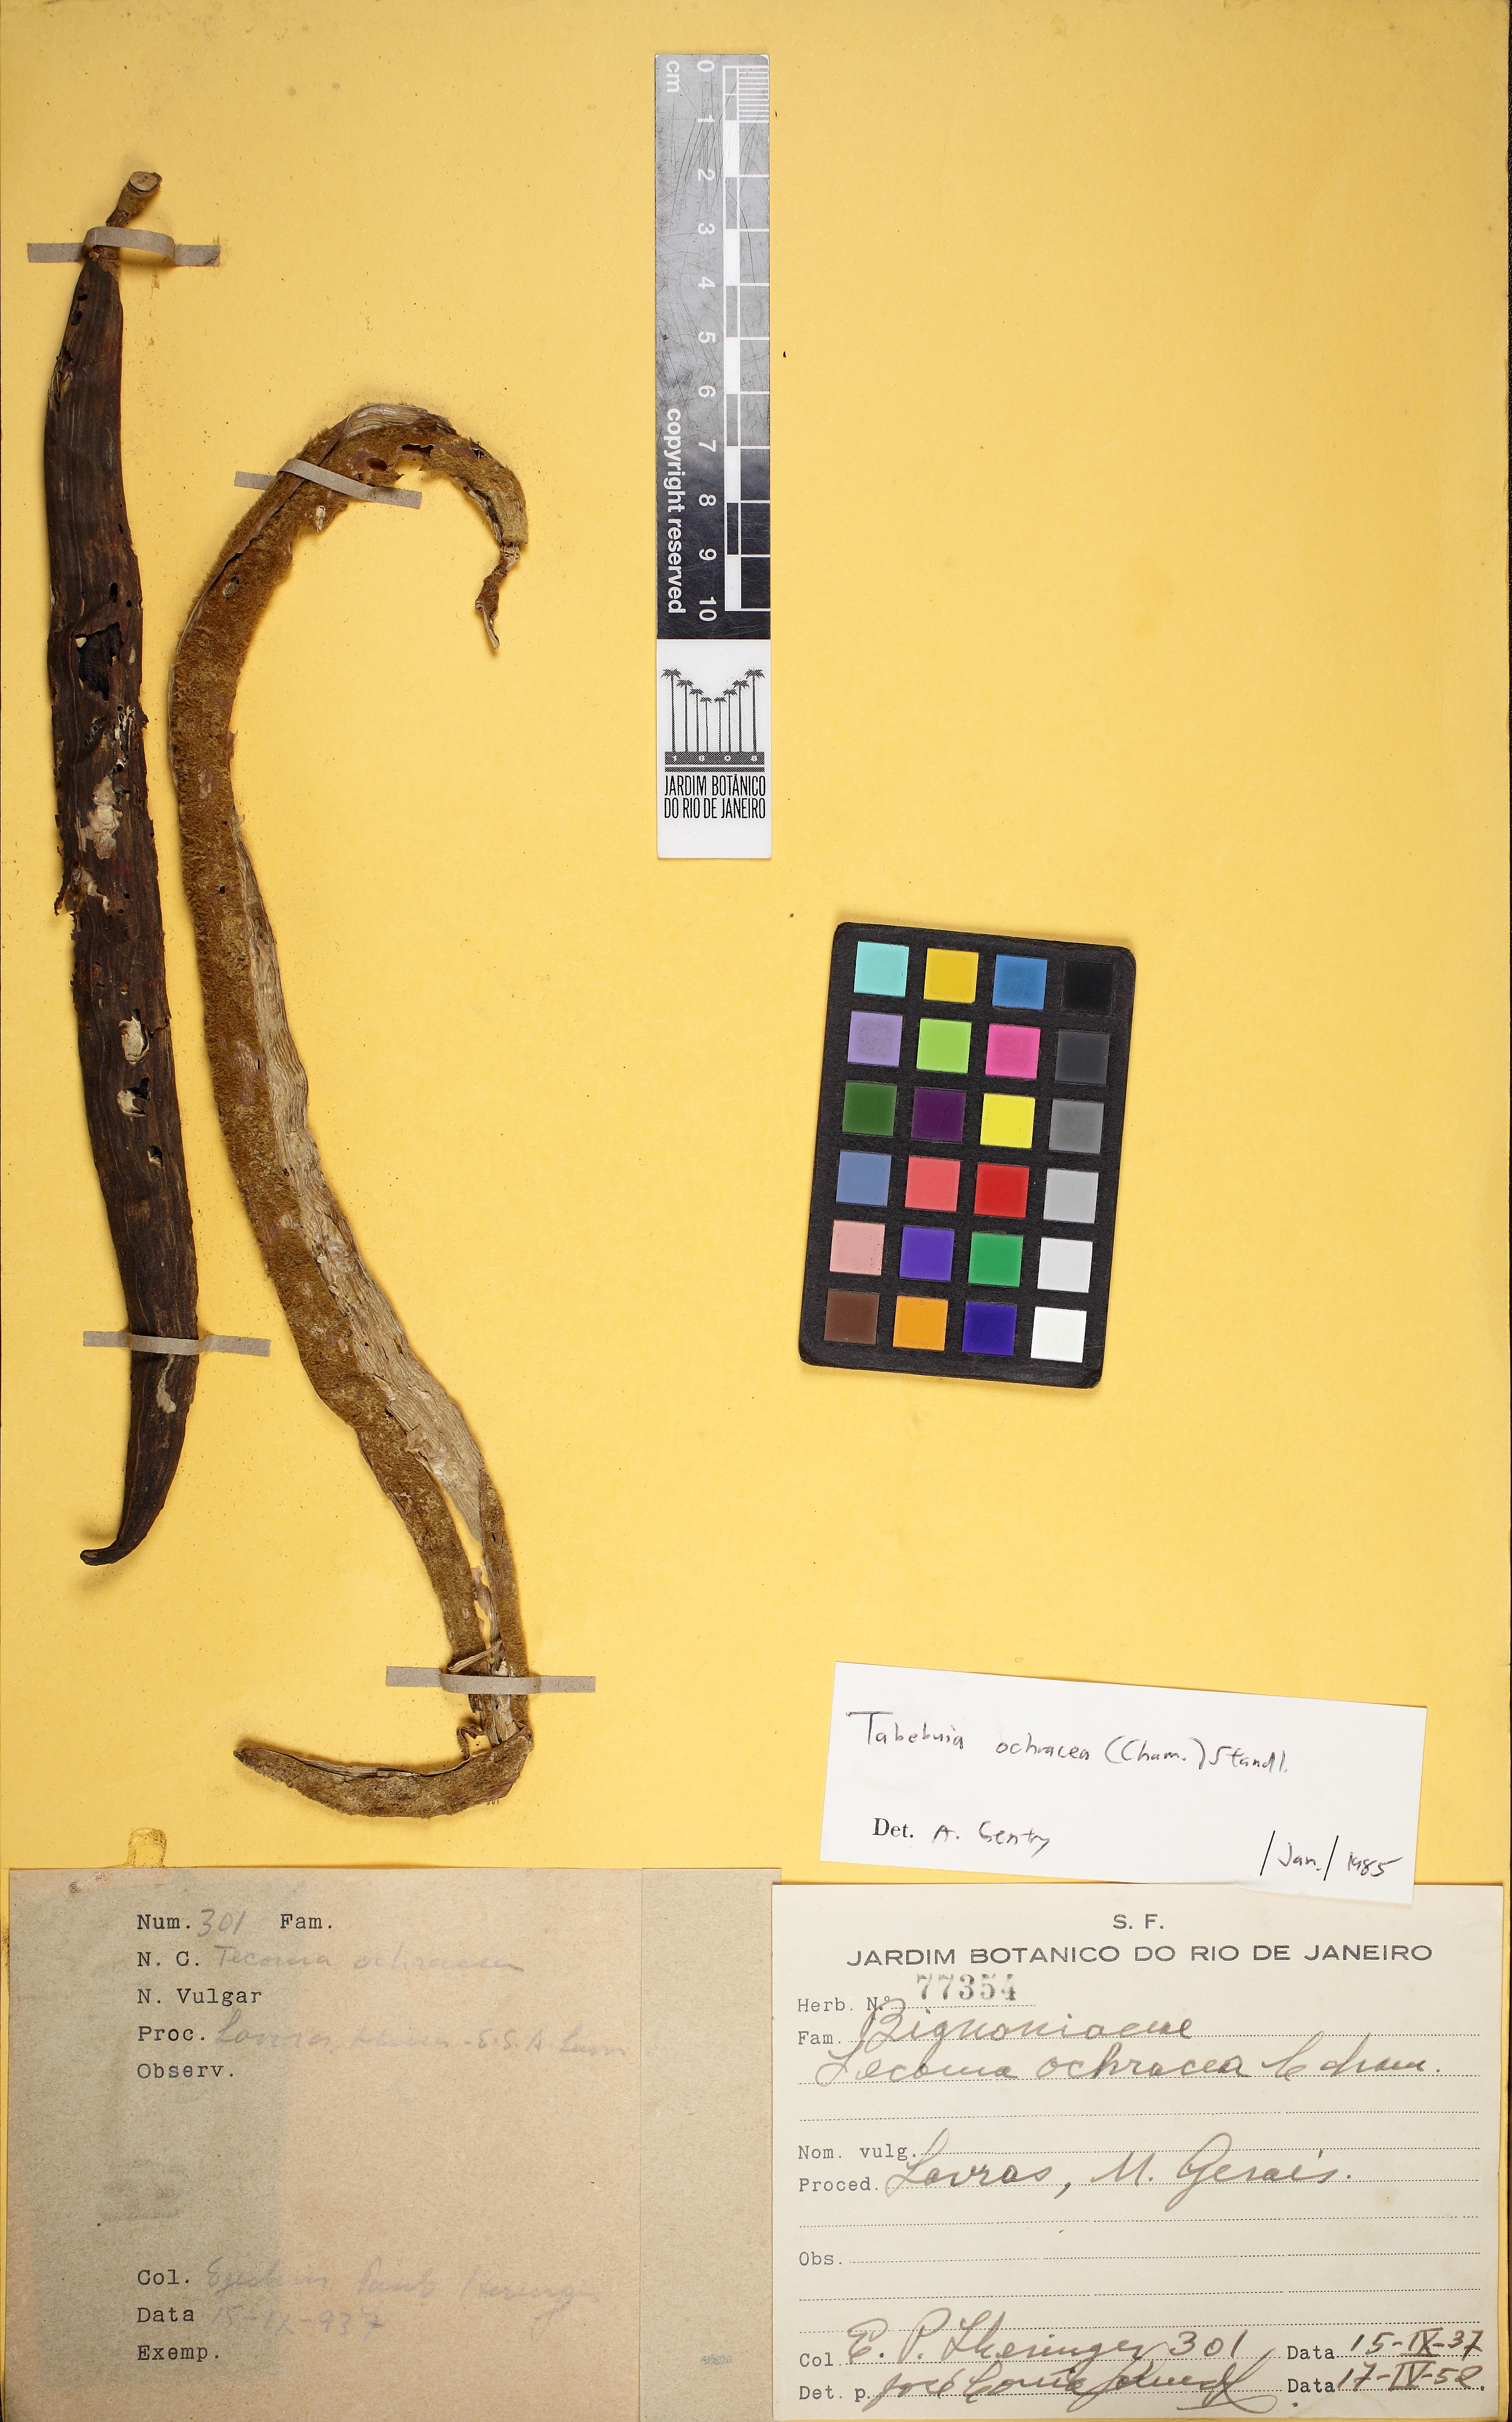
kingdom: Plantae
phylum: Tracheophyta
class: Magnoliopsida
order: Lamiales
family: Bignoniaceae
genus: Handroanthus
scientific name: Handroanthus
